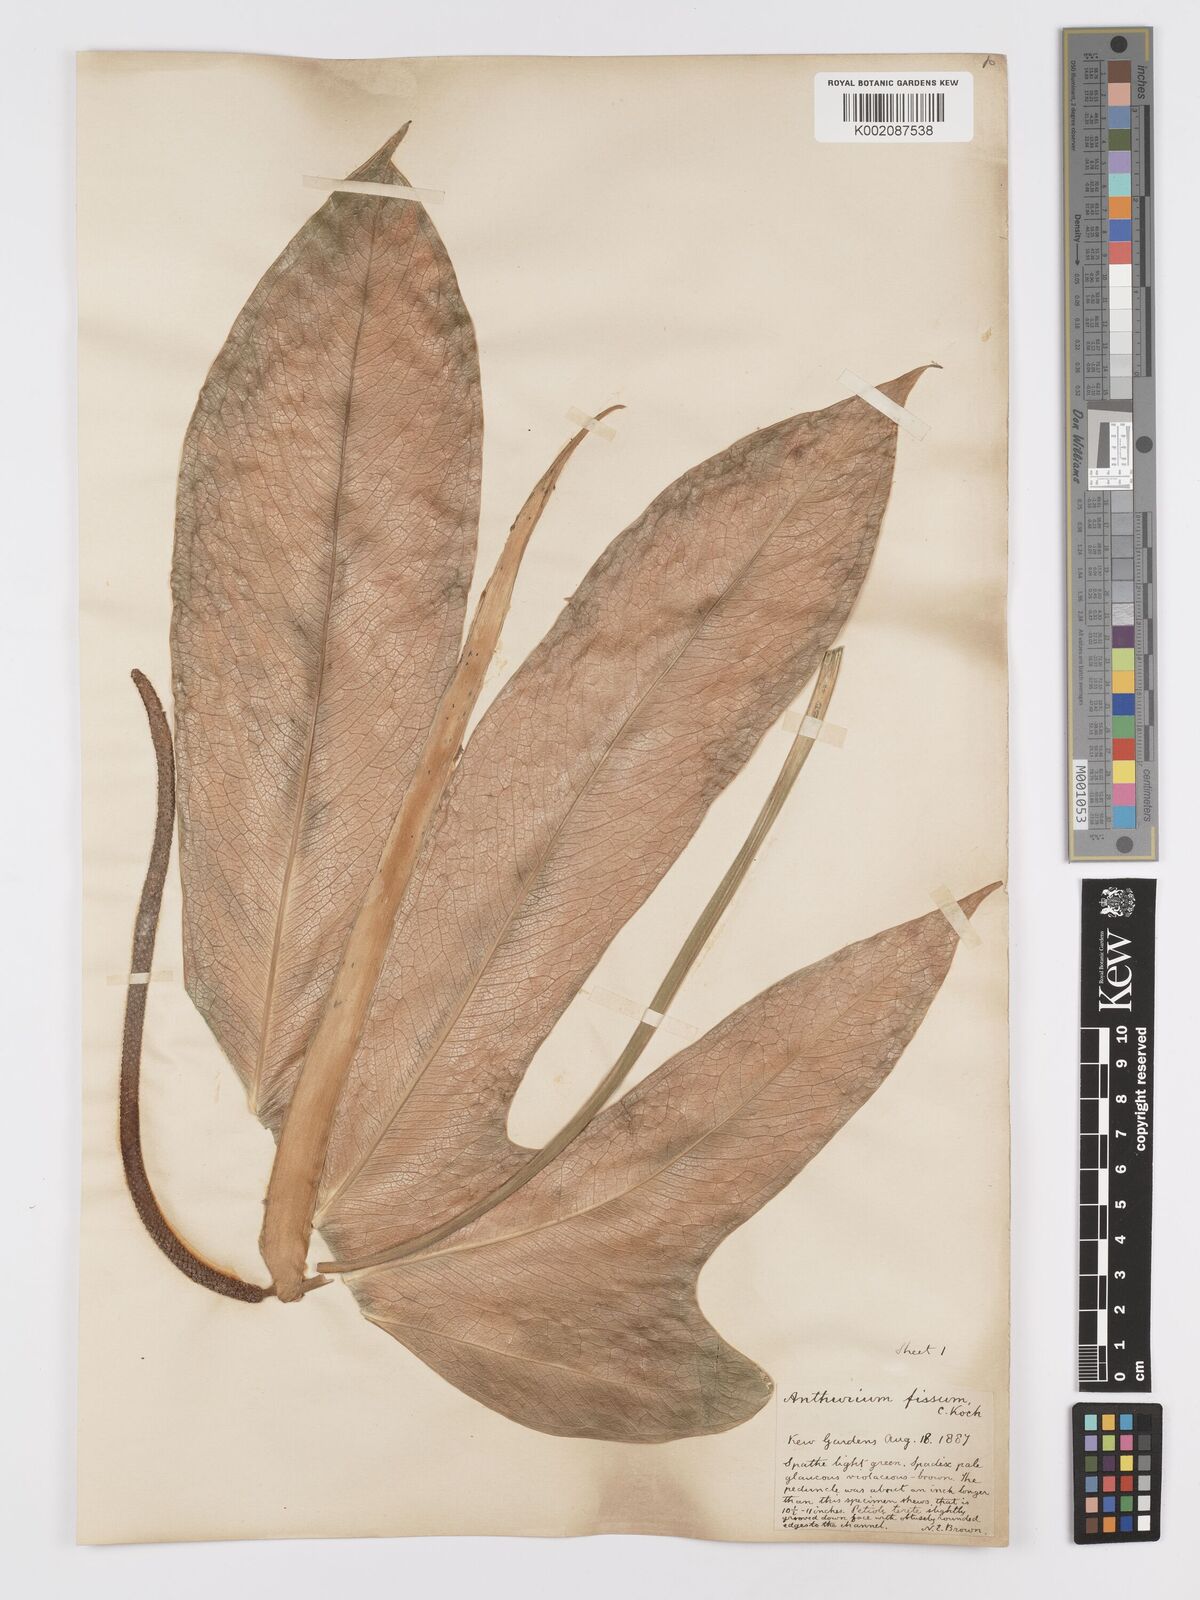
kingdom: Plantae
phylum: Tracheophyta
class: Liliopsida
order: Alismatales
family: Araceae
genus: Anthurium
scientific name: Anthurium palmatum
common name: Mibi
